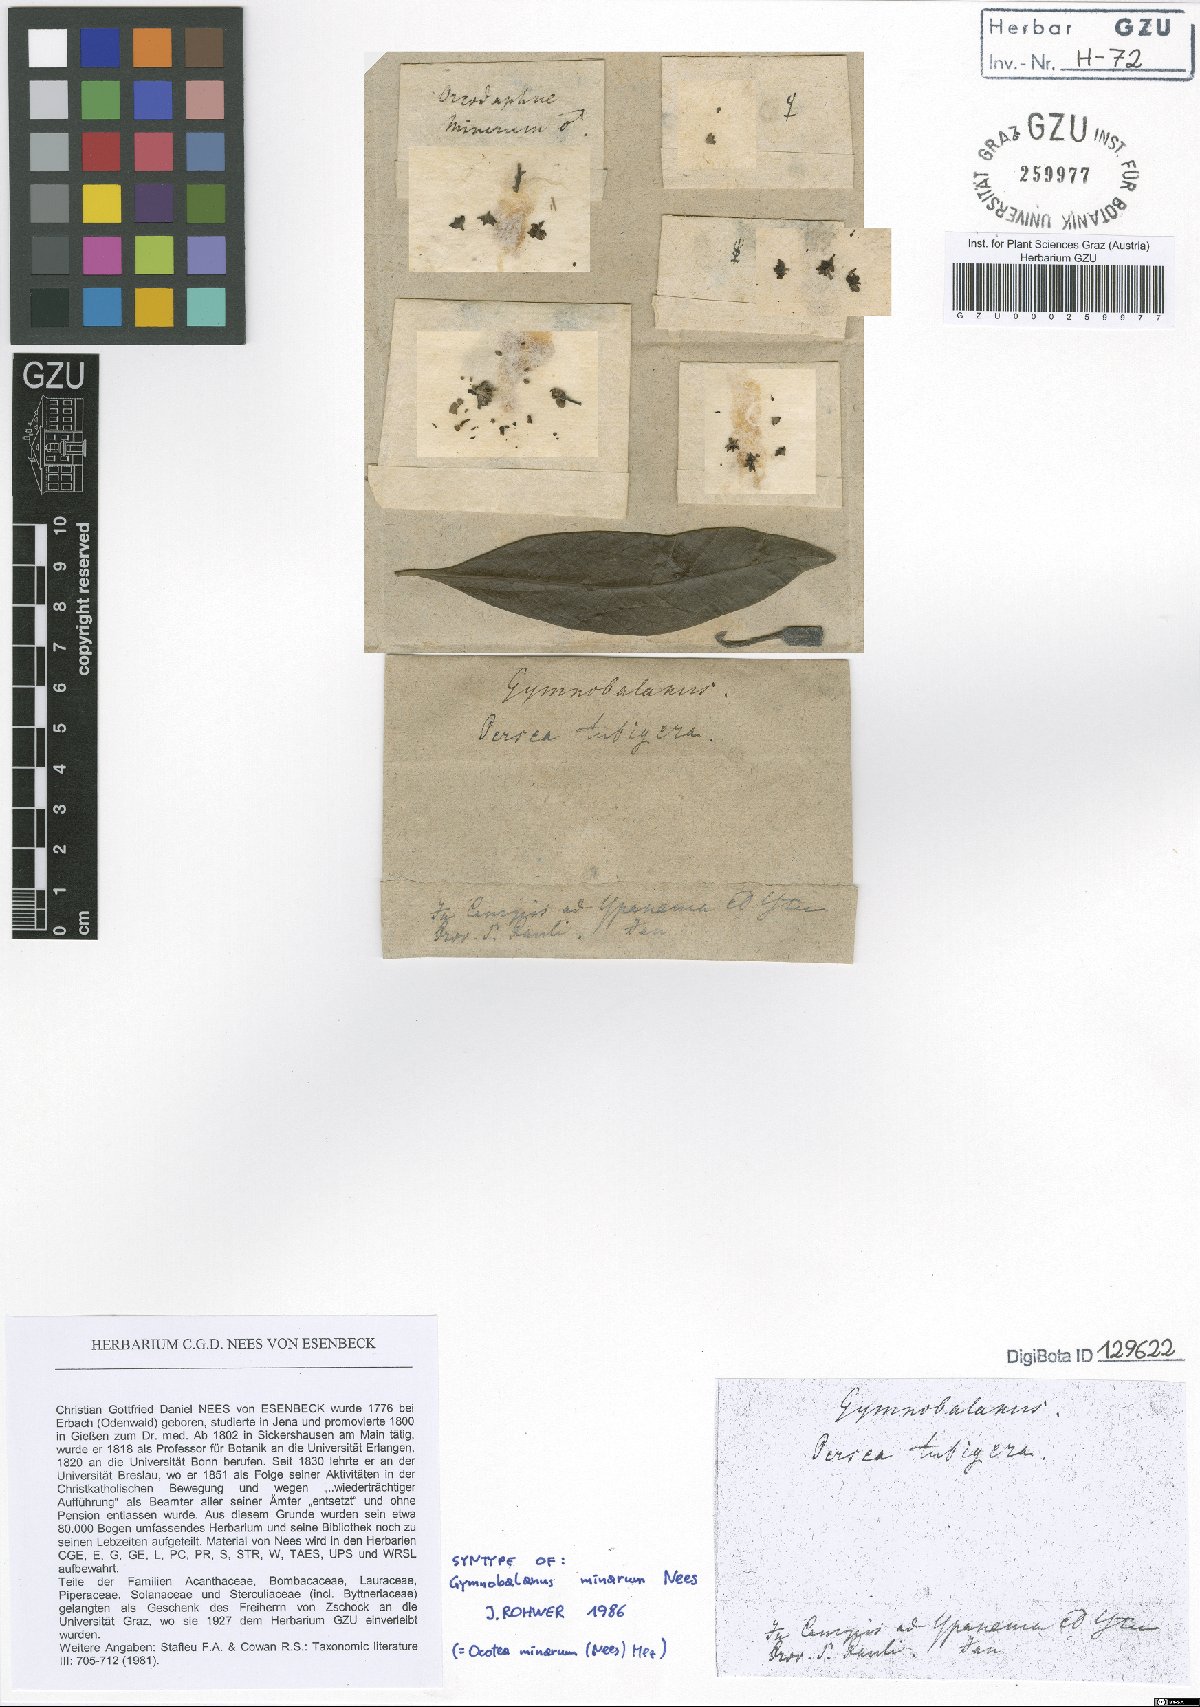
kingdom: Plantae
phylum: Tracheophyta
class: Magnoliopsida
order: Laurales
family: Lauraceae
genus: Ocotea
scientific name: Ocotea minarum
